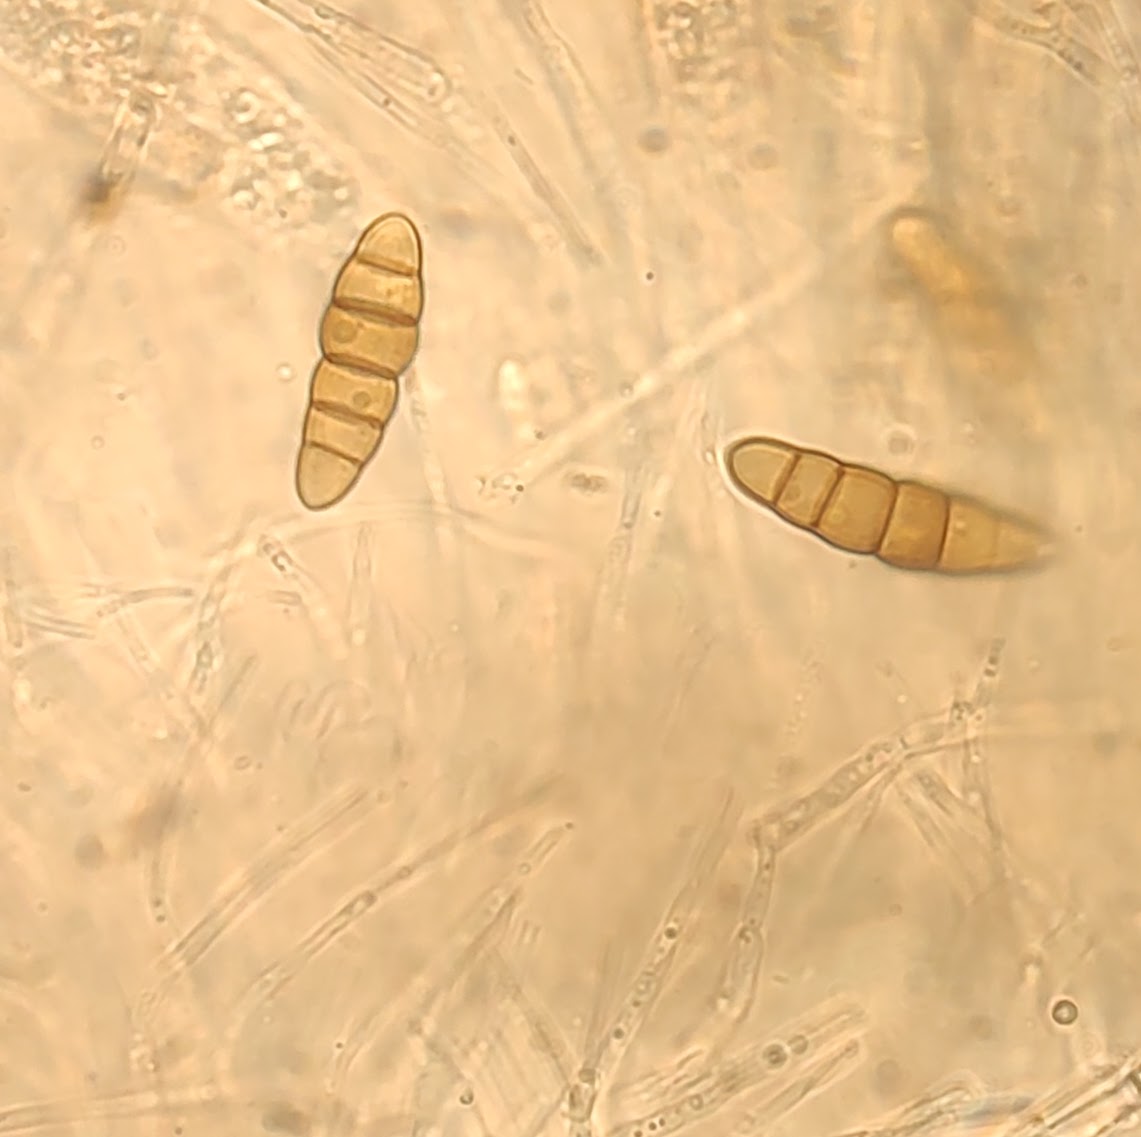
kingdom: Fungi
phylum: Ascomycota
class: Dothideomycetes
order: Pleosporales
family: Thyridariaceae
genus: Thyridaria
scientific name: Thyridaria macrostomoides
